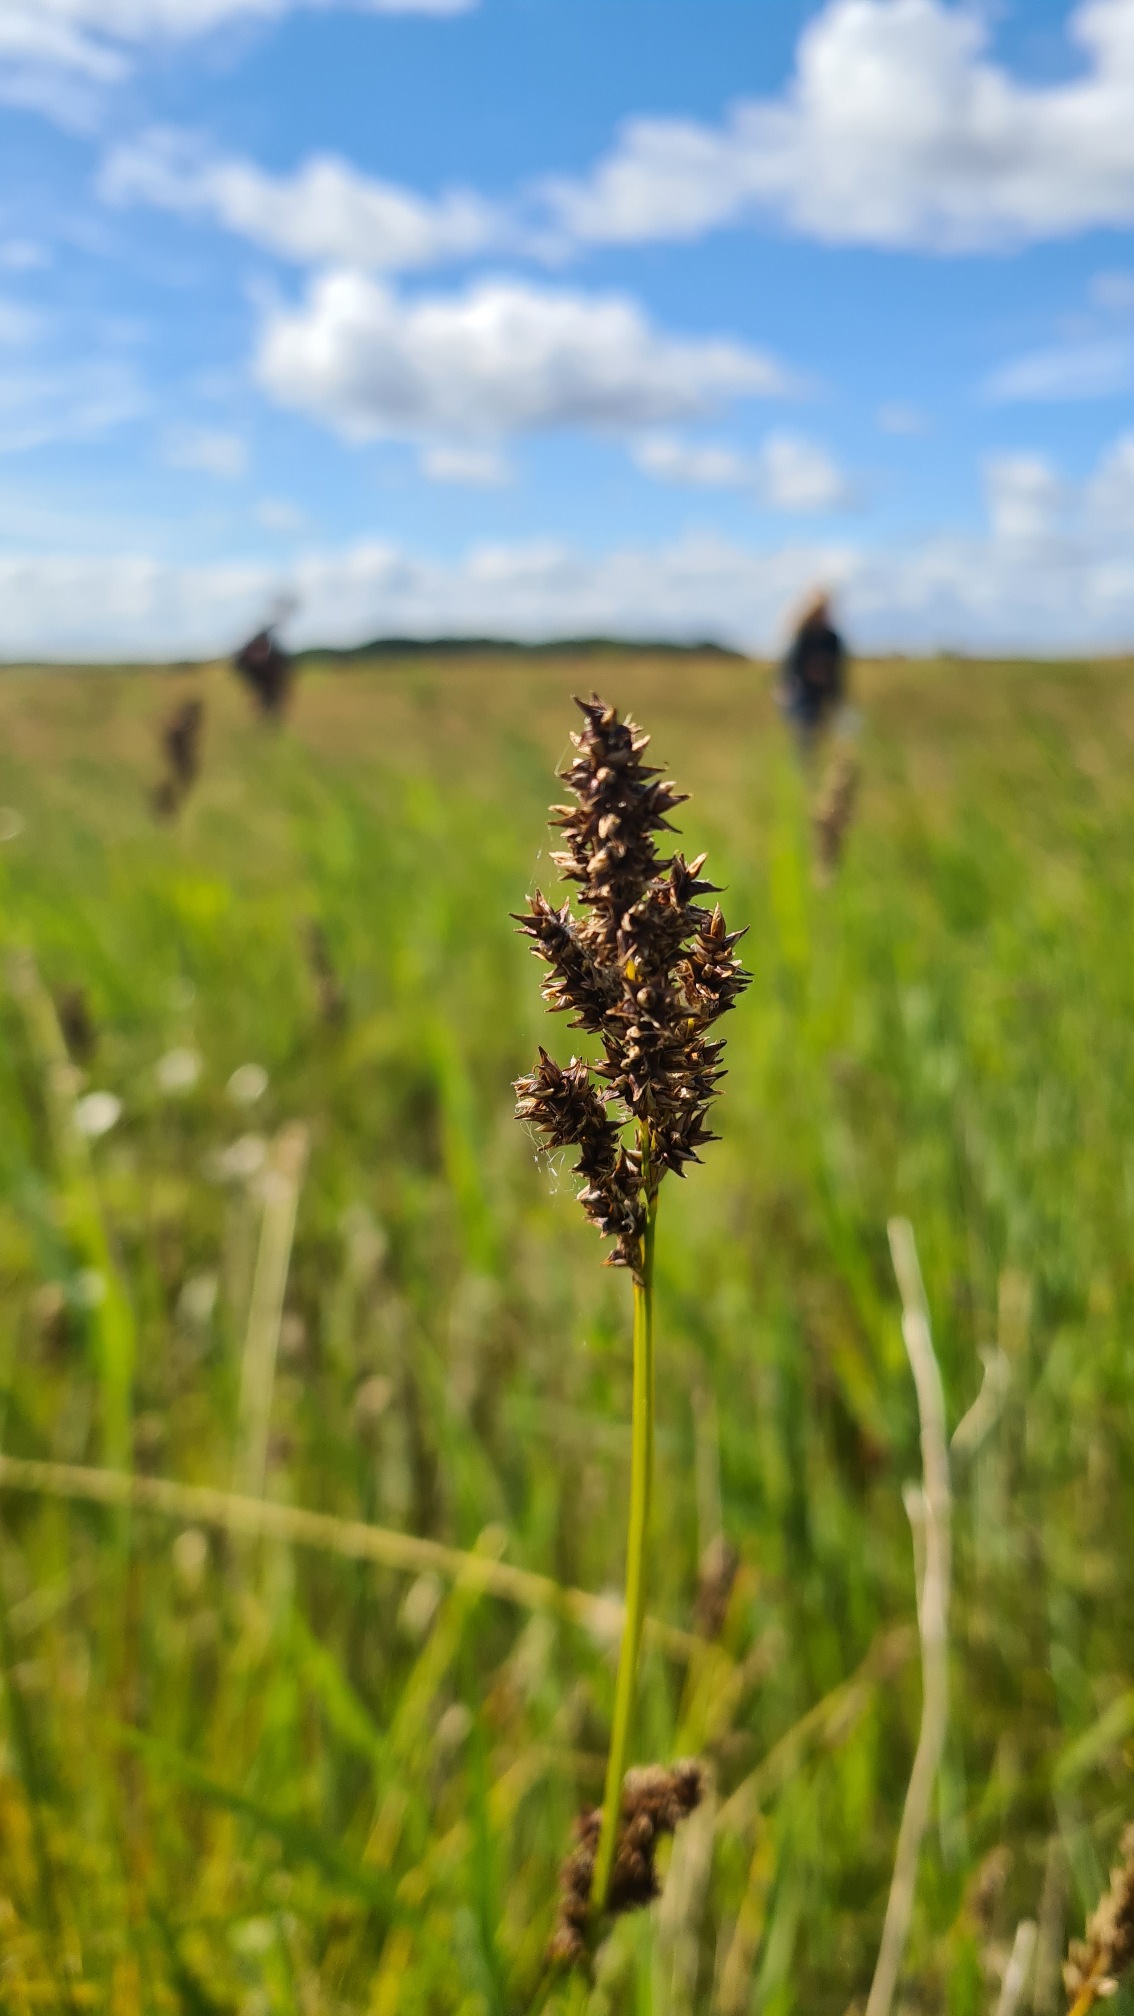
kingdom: Plantae
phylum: Tracheophyta
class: Liliopsida
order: Poales
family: Cyperaceae
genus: Carex
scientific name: Carex paniculata
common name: Top-star
